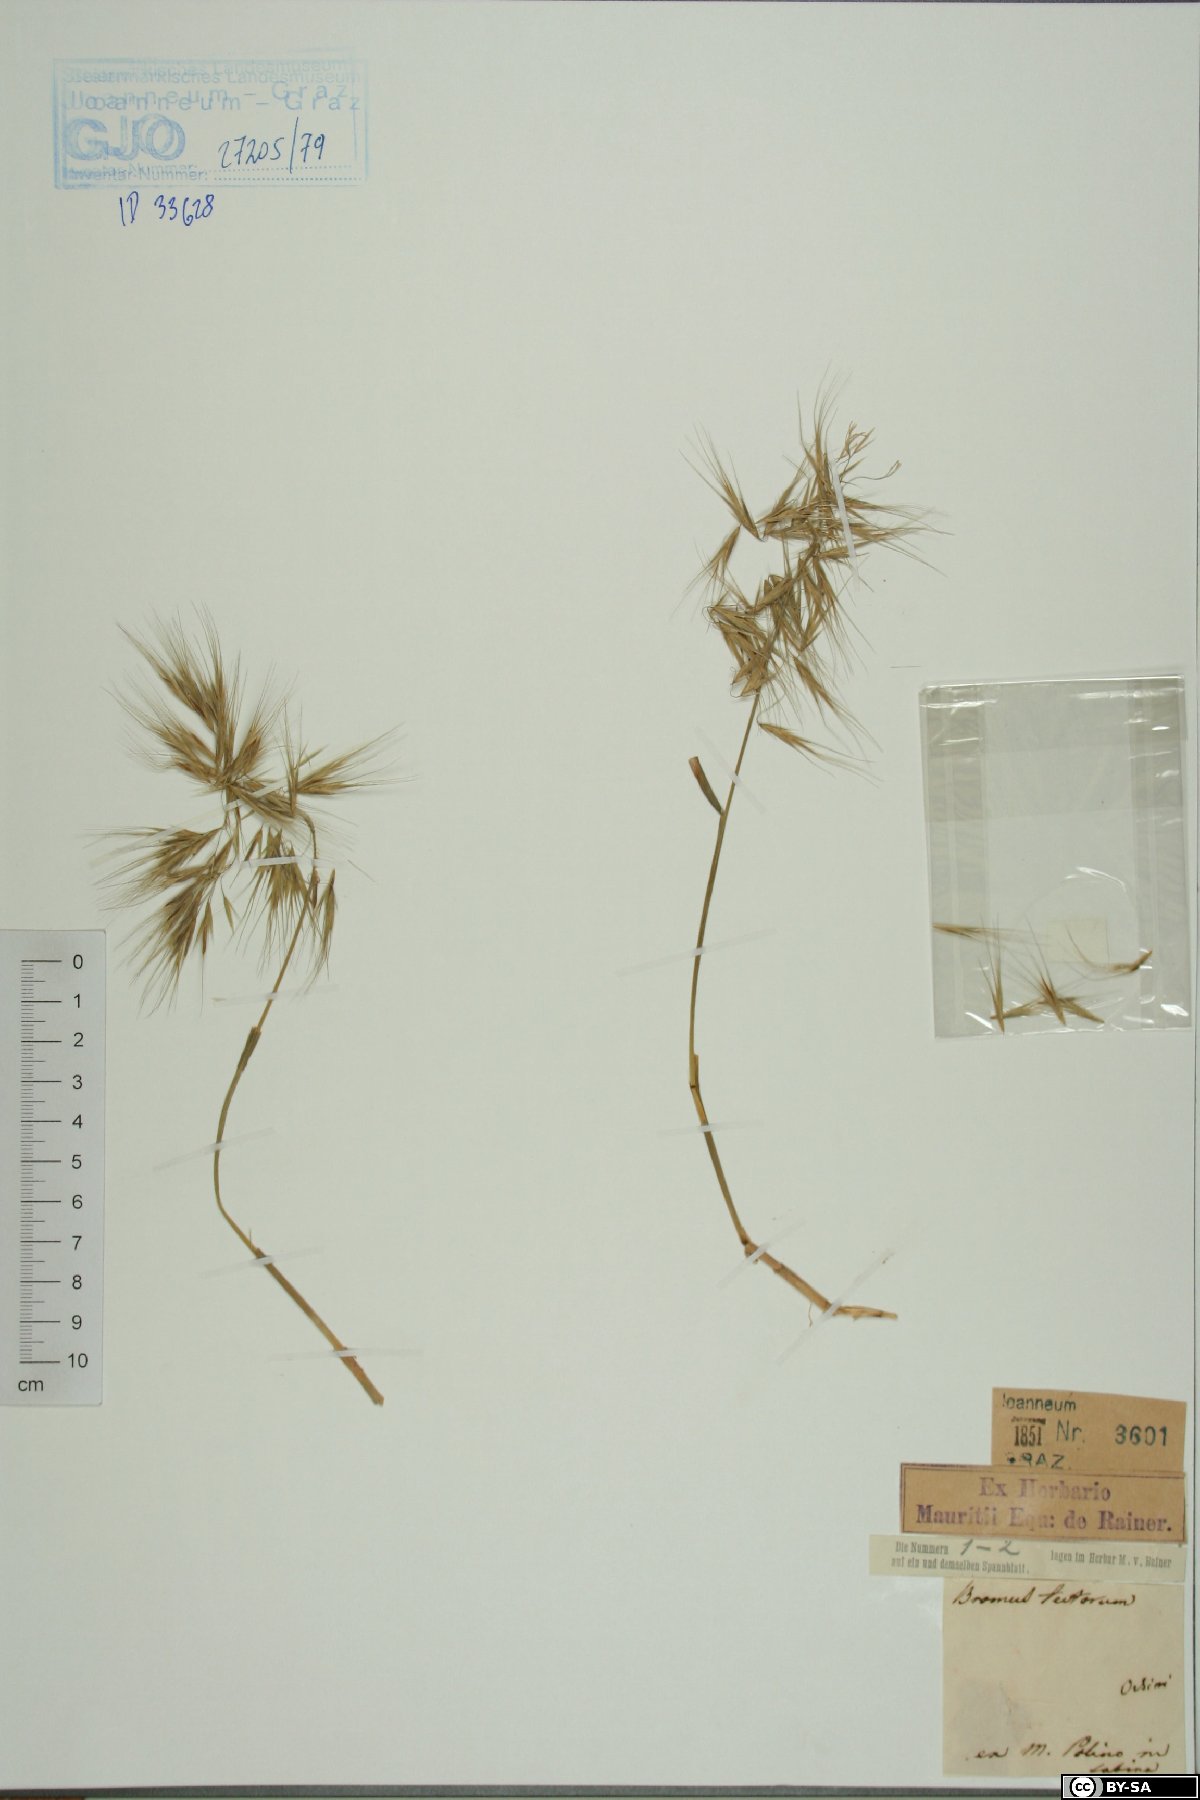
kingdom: Plantae
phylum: Tracheophyta
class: Liliopsida
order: Poales
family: Poaceae
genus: Bromus
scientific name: Bromus tectorum
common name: Cheatgrass
